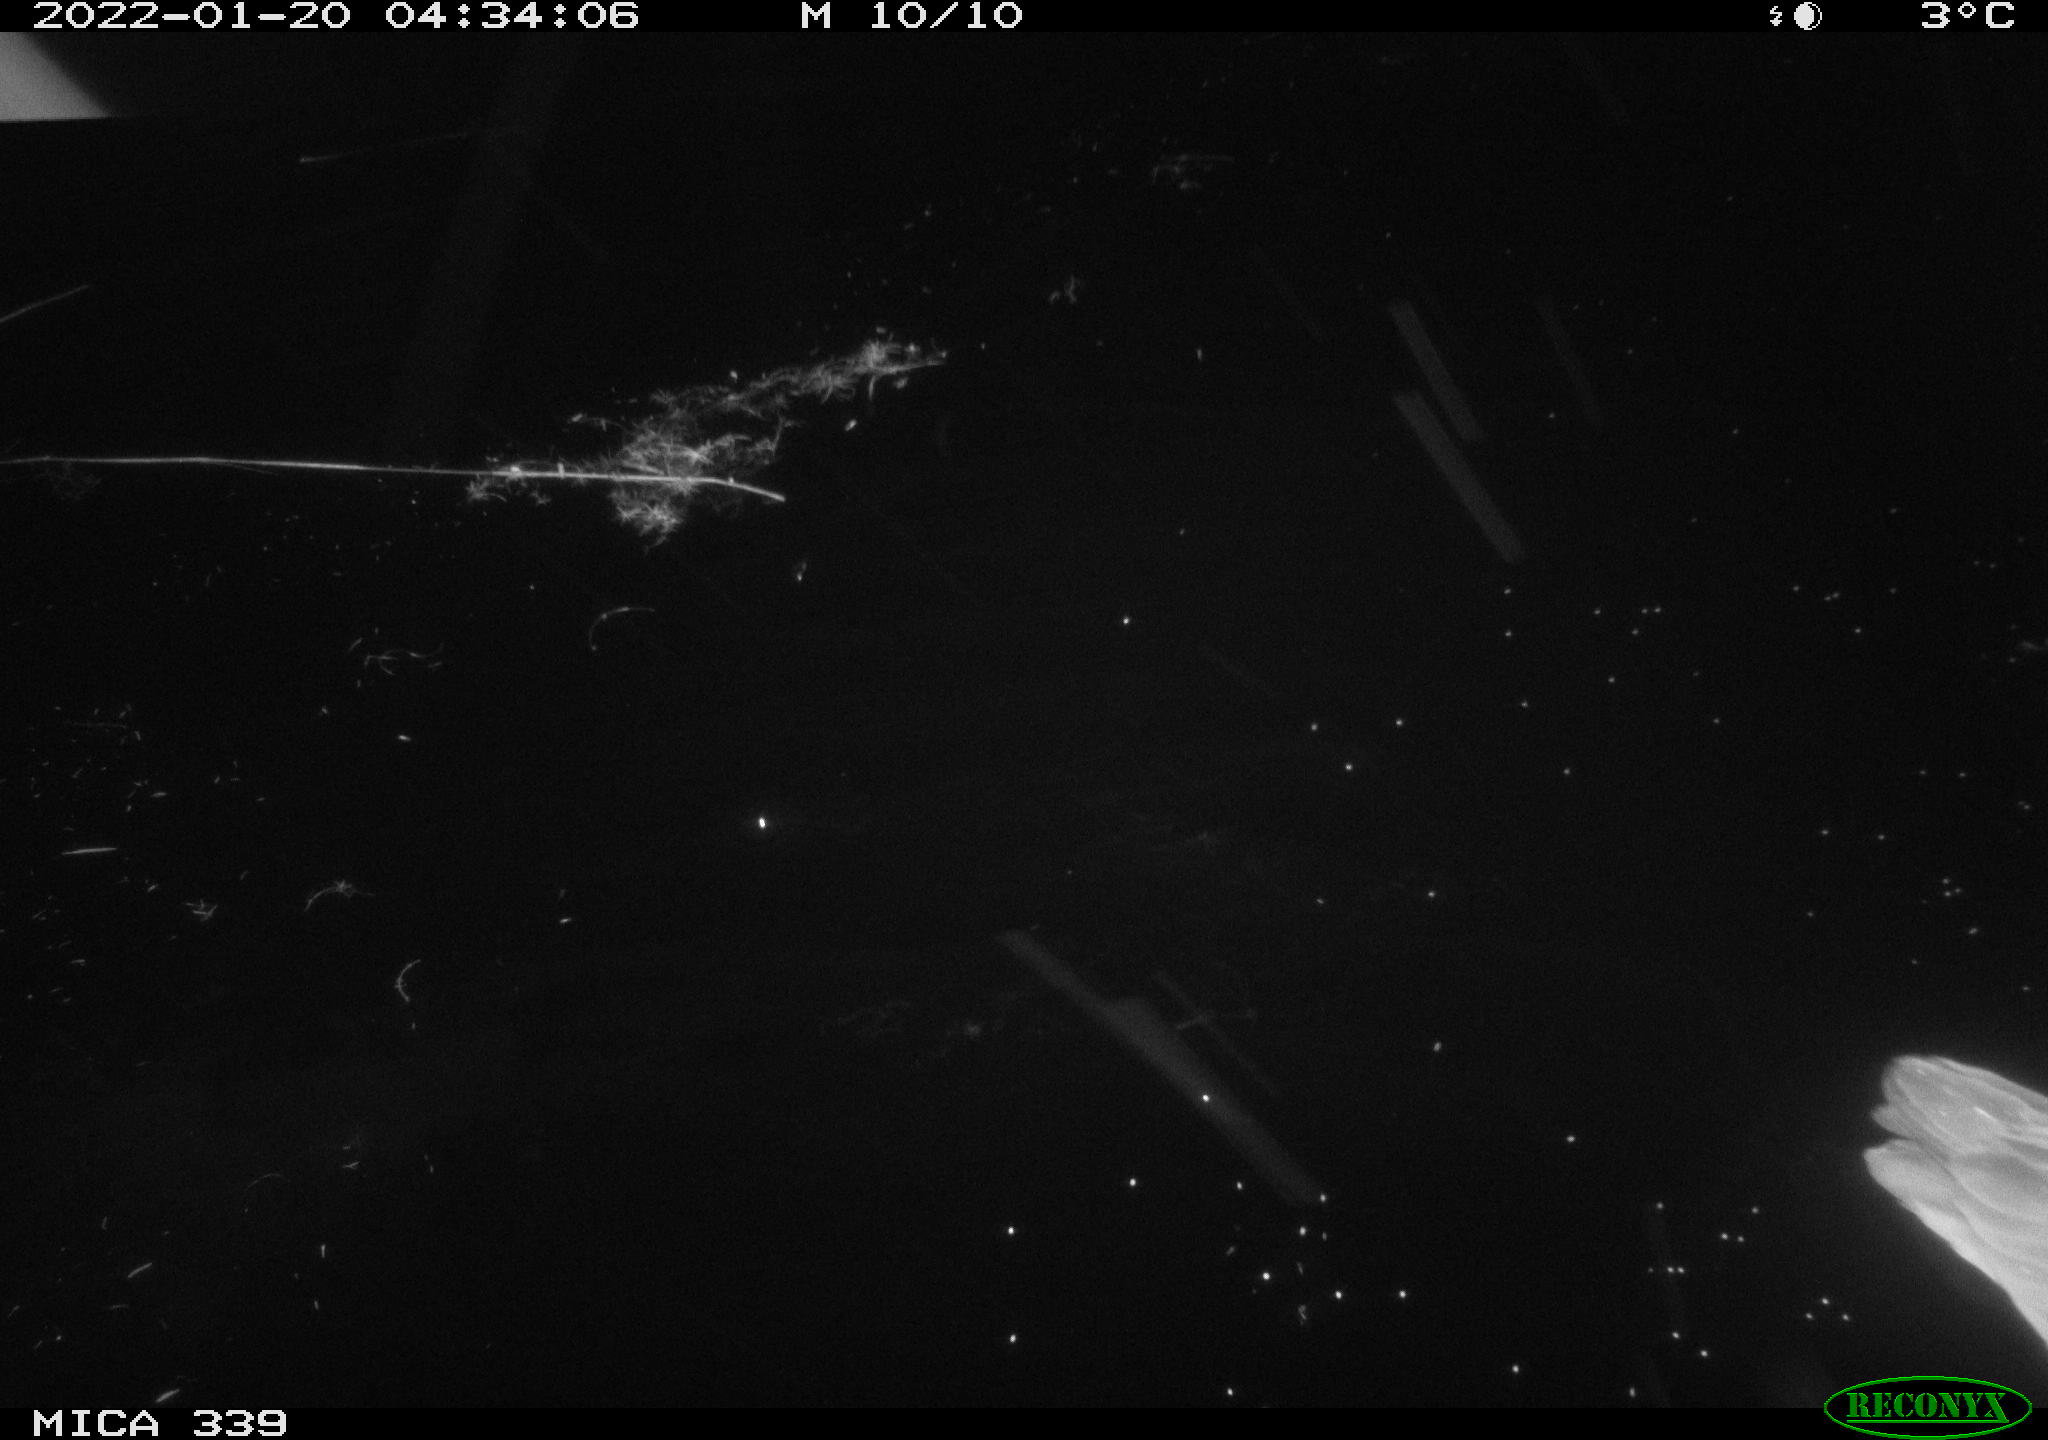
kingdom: Animalia
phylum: Chordata
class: Aves
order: Pelecaniformes
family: Ardeidae
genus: Ardea
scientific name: Ardea cinerea
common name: Grey heron
